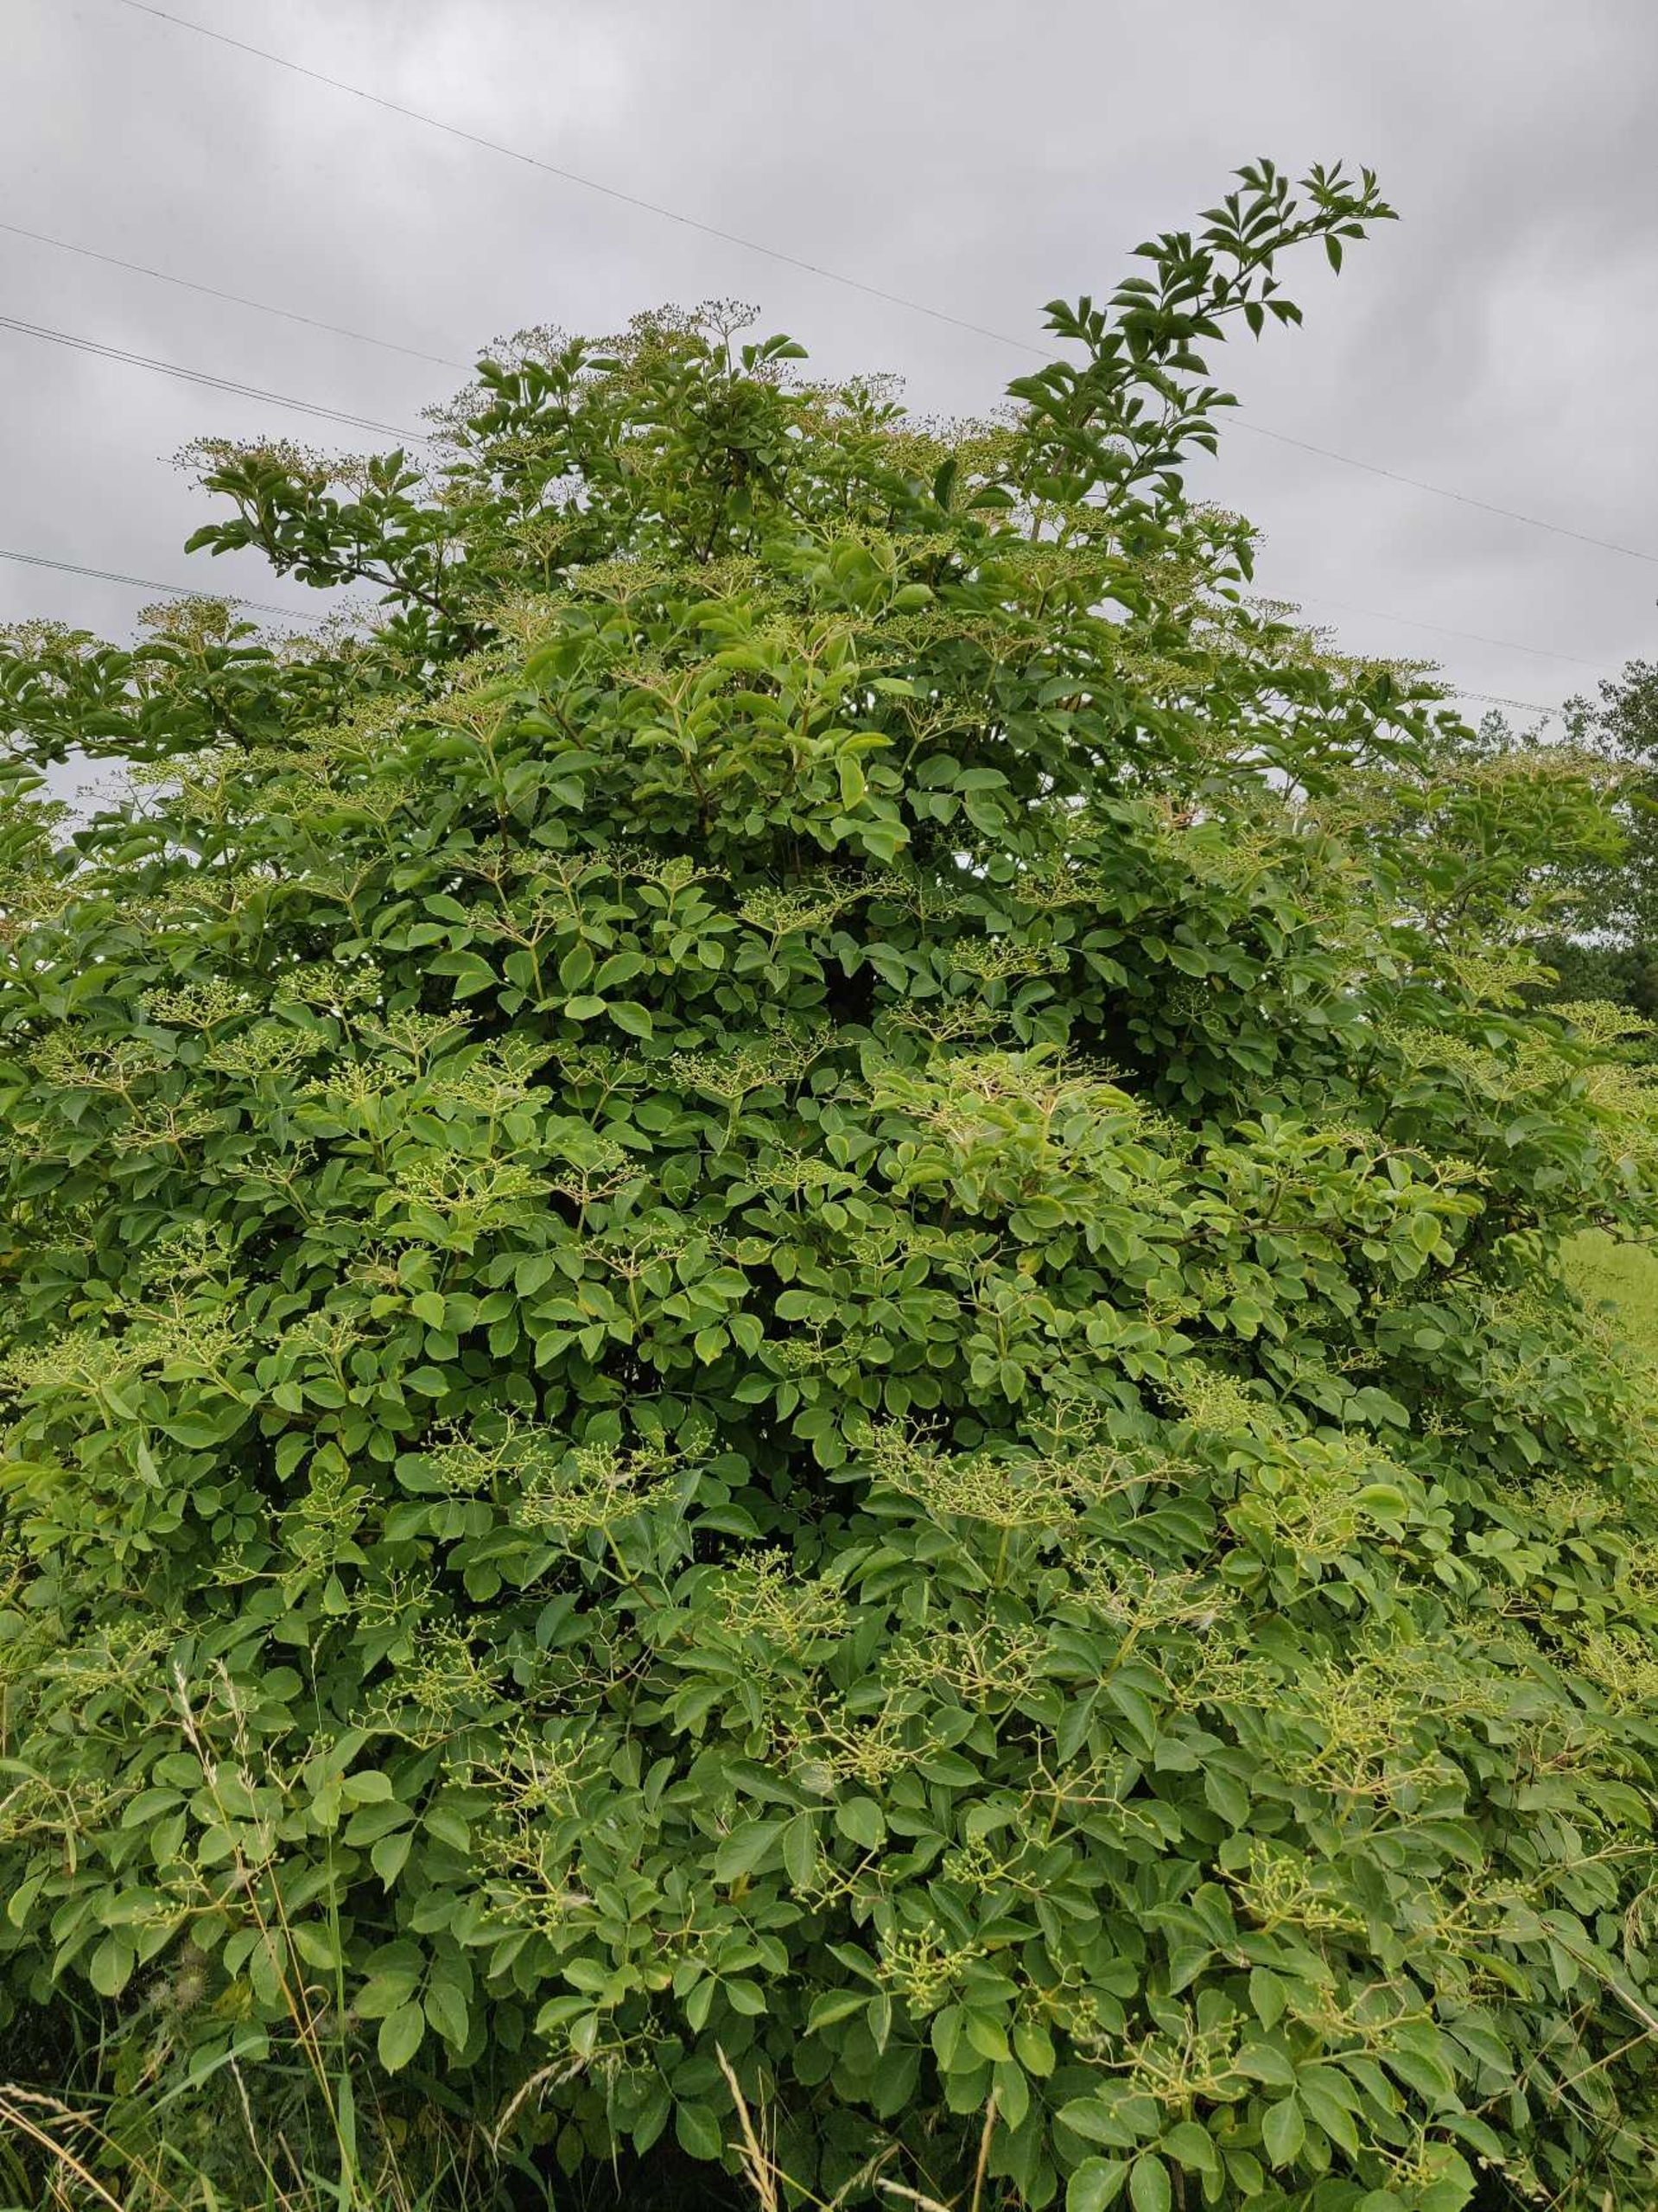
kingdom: Plantae
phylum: Tracheophyta
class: Magnoliopsida
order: Dipsacales
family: Viburnaceae
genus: Sambucus
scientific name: Sambucus nigra
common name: Almindelig hyld
